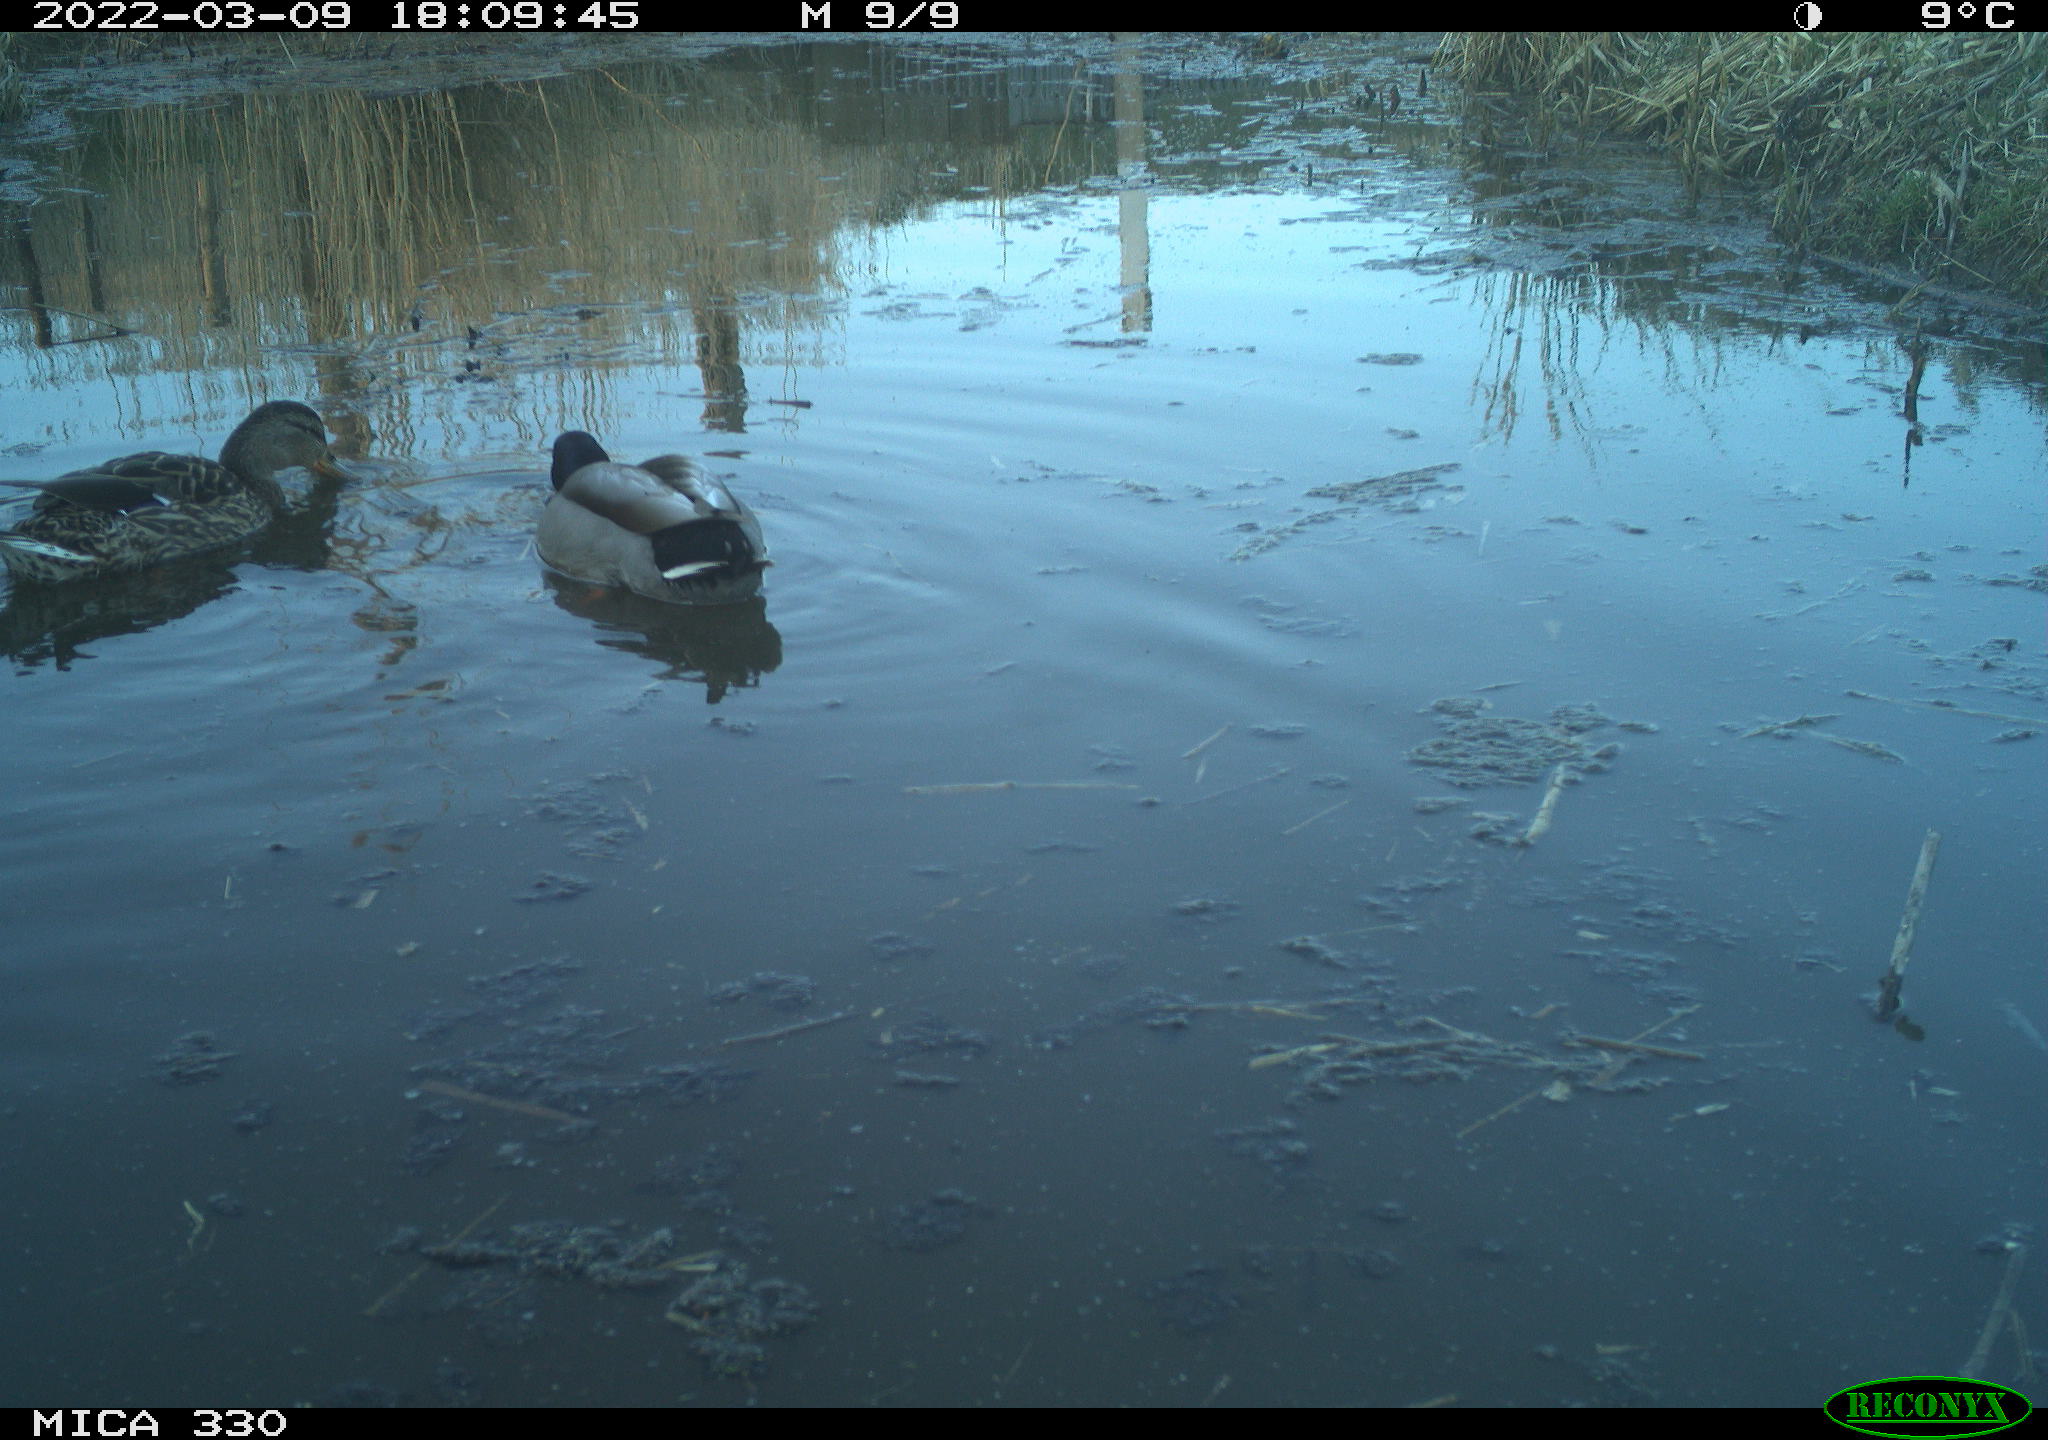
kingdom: Animalia
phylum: Chordata
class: Aves
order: Anseriformes
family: Anatidae
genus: Anas
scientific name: Anas platyrhynchos
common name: Mallard
